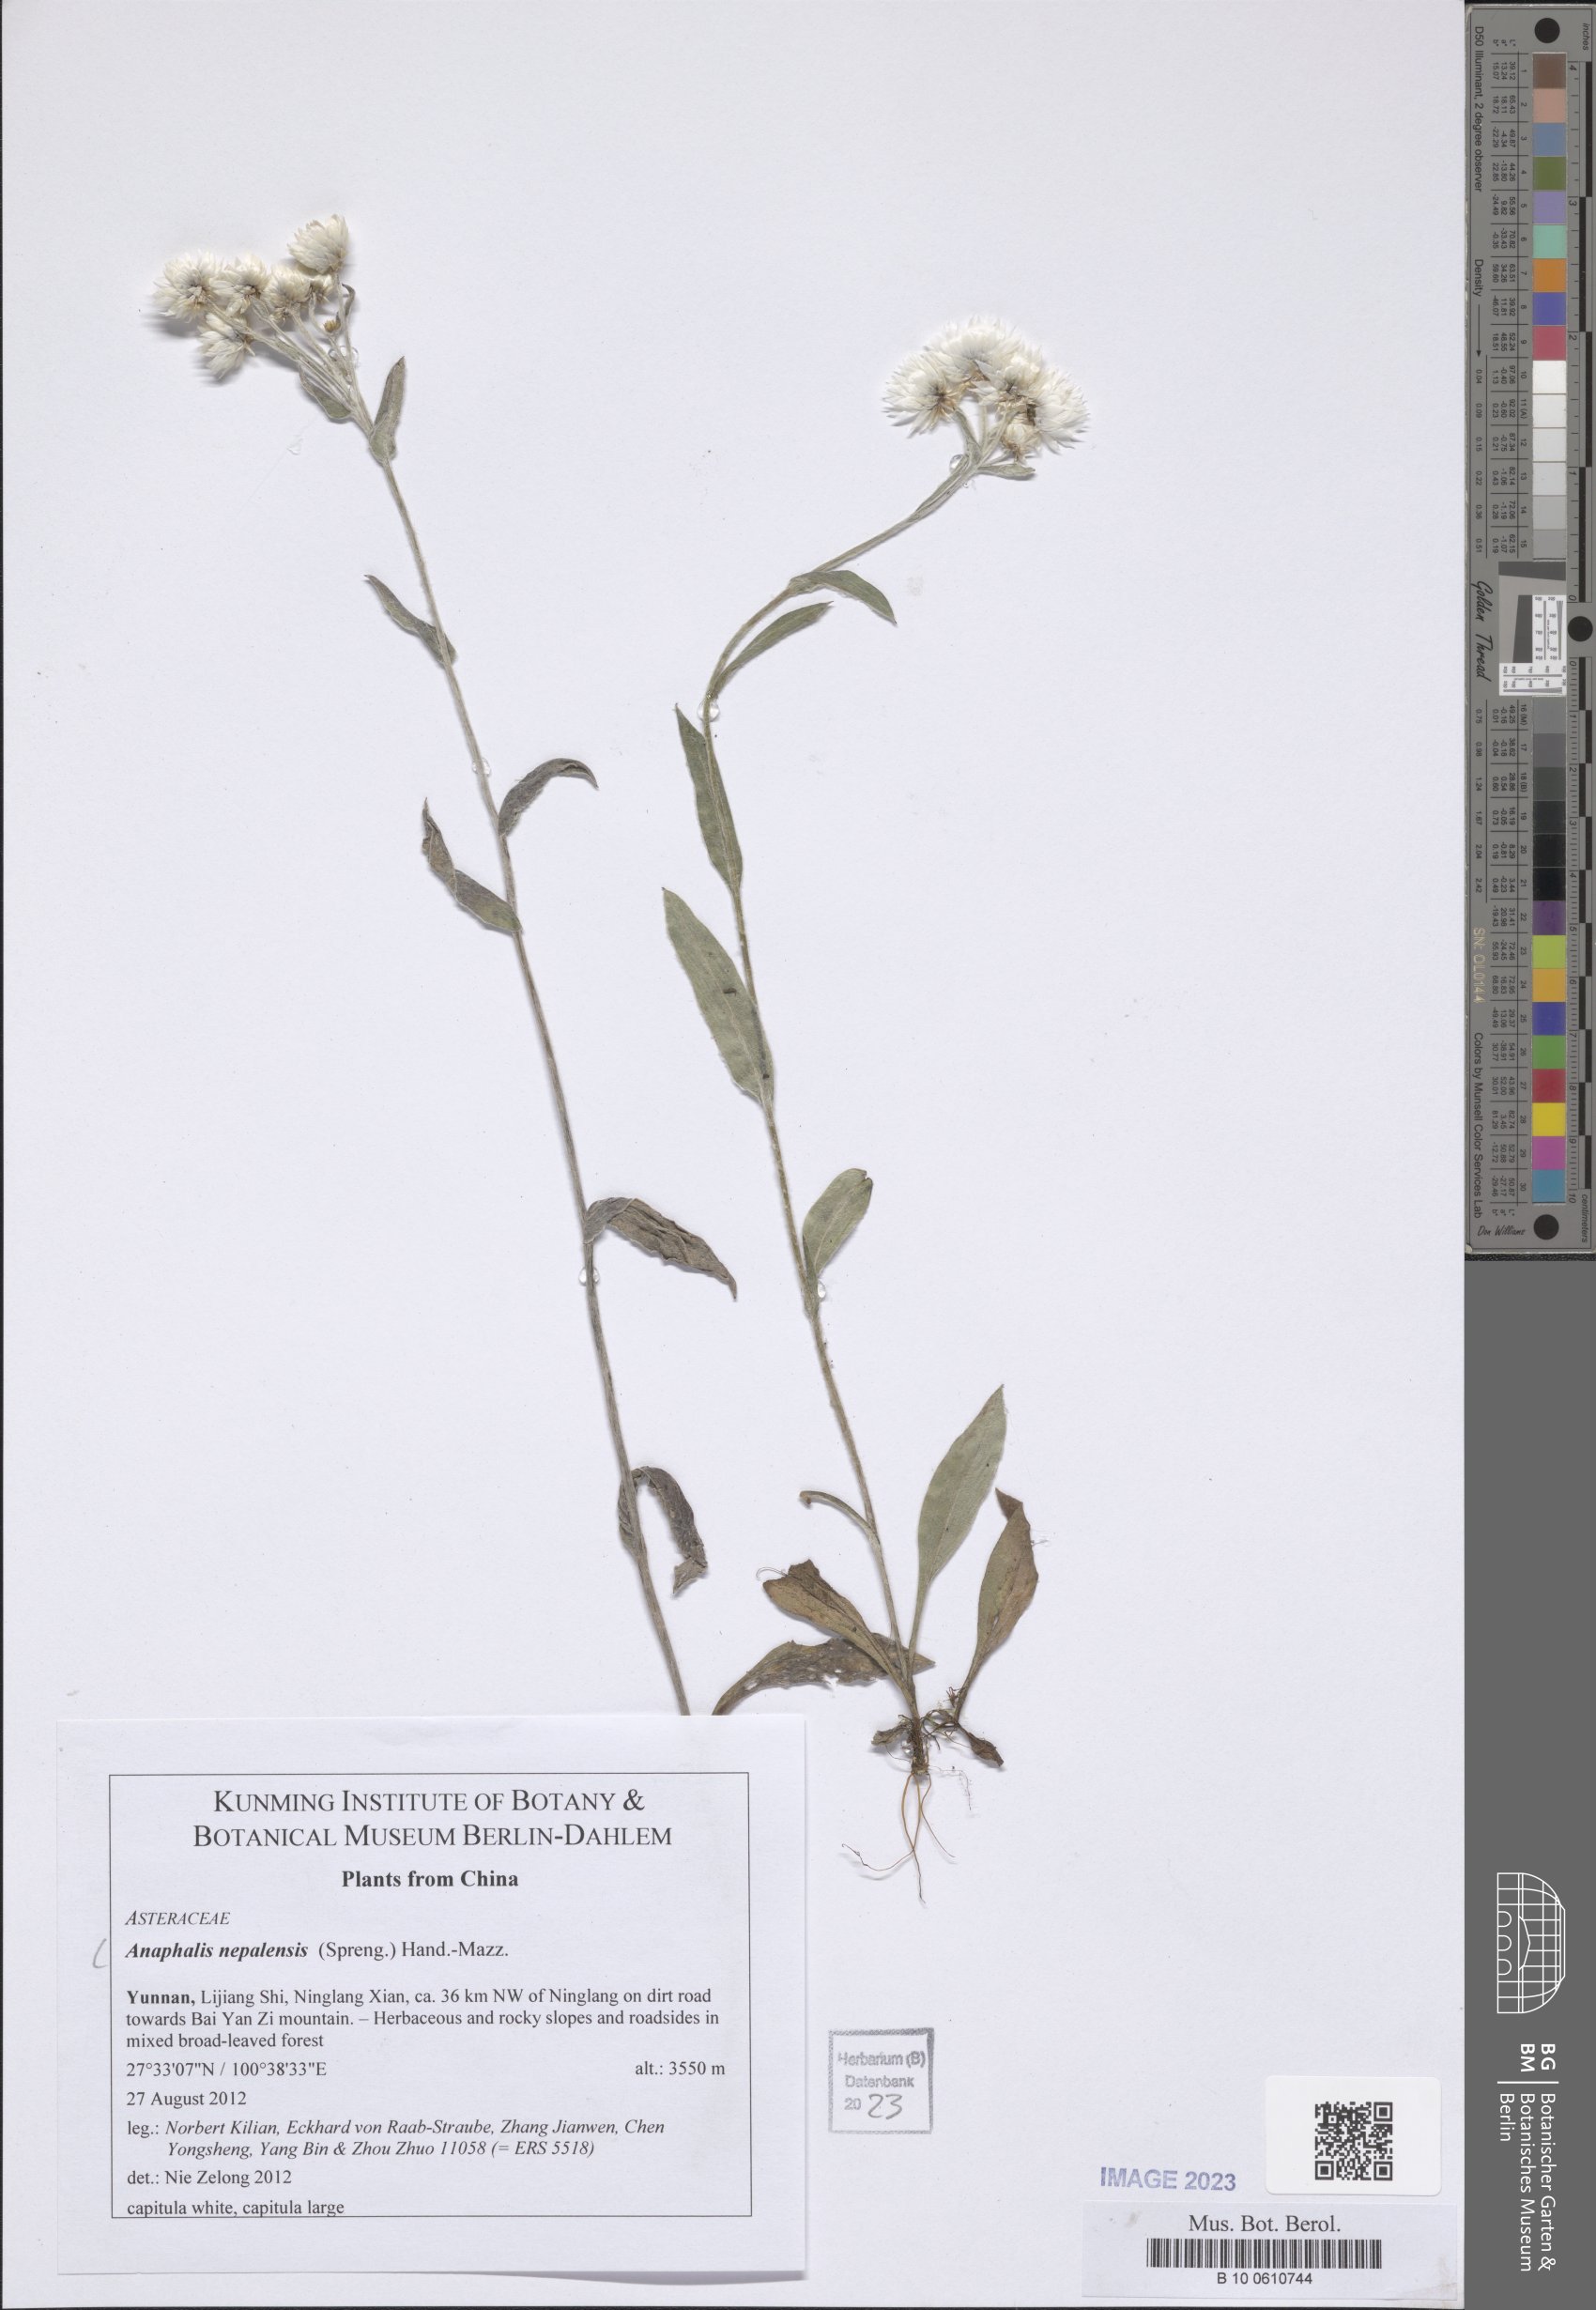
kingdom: Plantae
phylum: Tracheophyta
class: Magnoliopsida
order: Asterales
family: Asteraceae
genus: Anaphalis
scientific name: Anaphalis nepalensis
